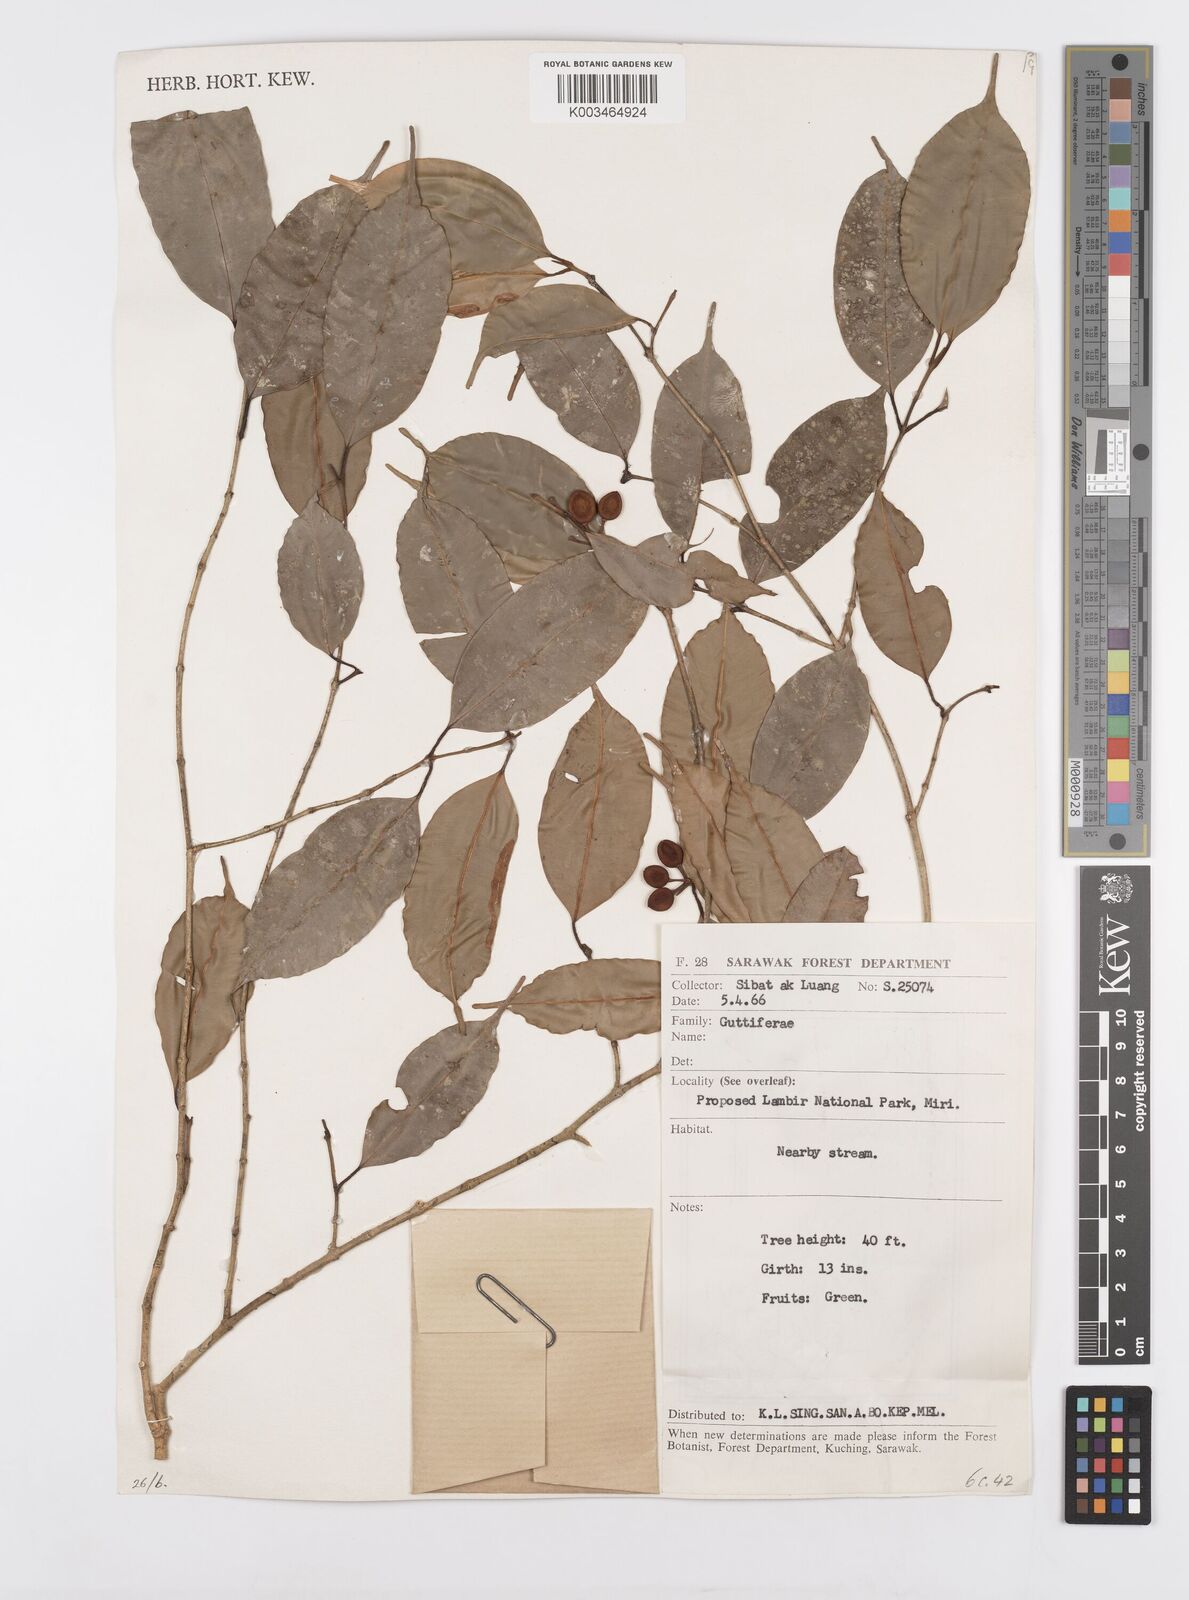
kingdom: Plantae
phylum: Tracheophyta
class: Magnoliopsida
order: Malpighiales
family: Calophyllaceae
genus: Calophyllum
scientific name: Calophyllum banyengii
